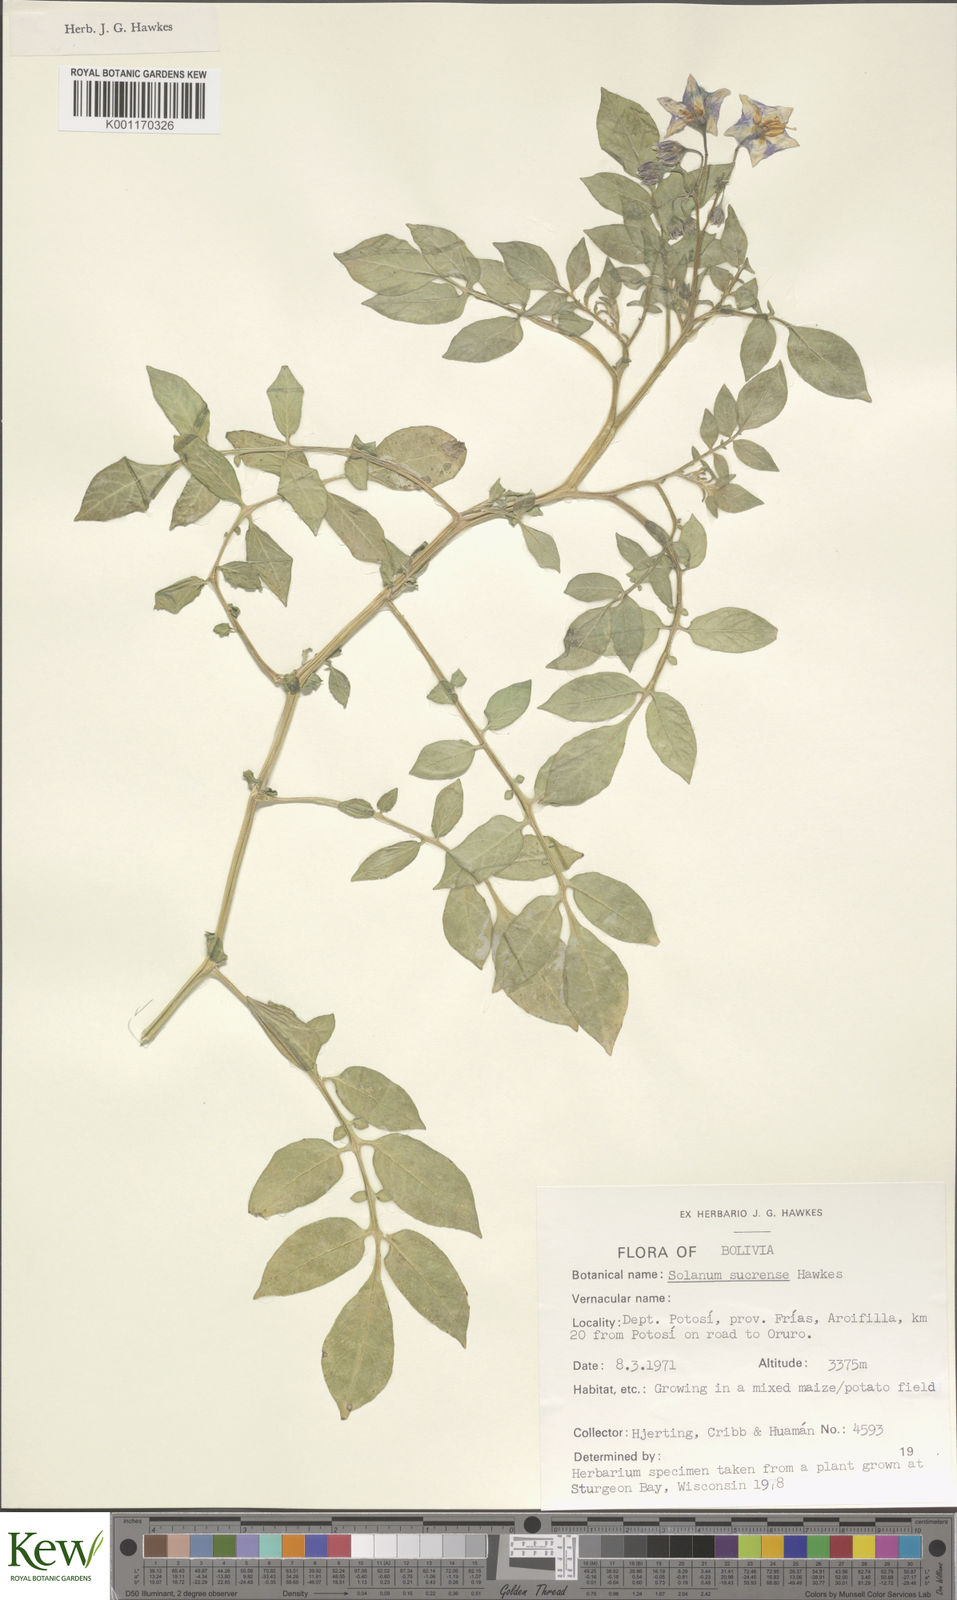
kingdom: Plantae
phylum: Tracheophyta
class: Magnoliopsida
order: Solanales
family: Solanaceae
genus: Solanum
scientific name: Solanum brevicaule
